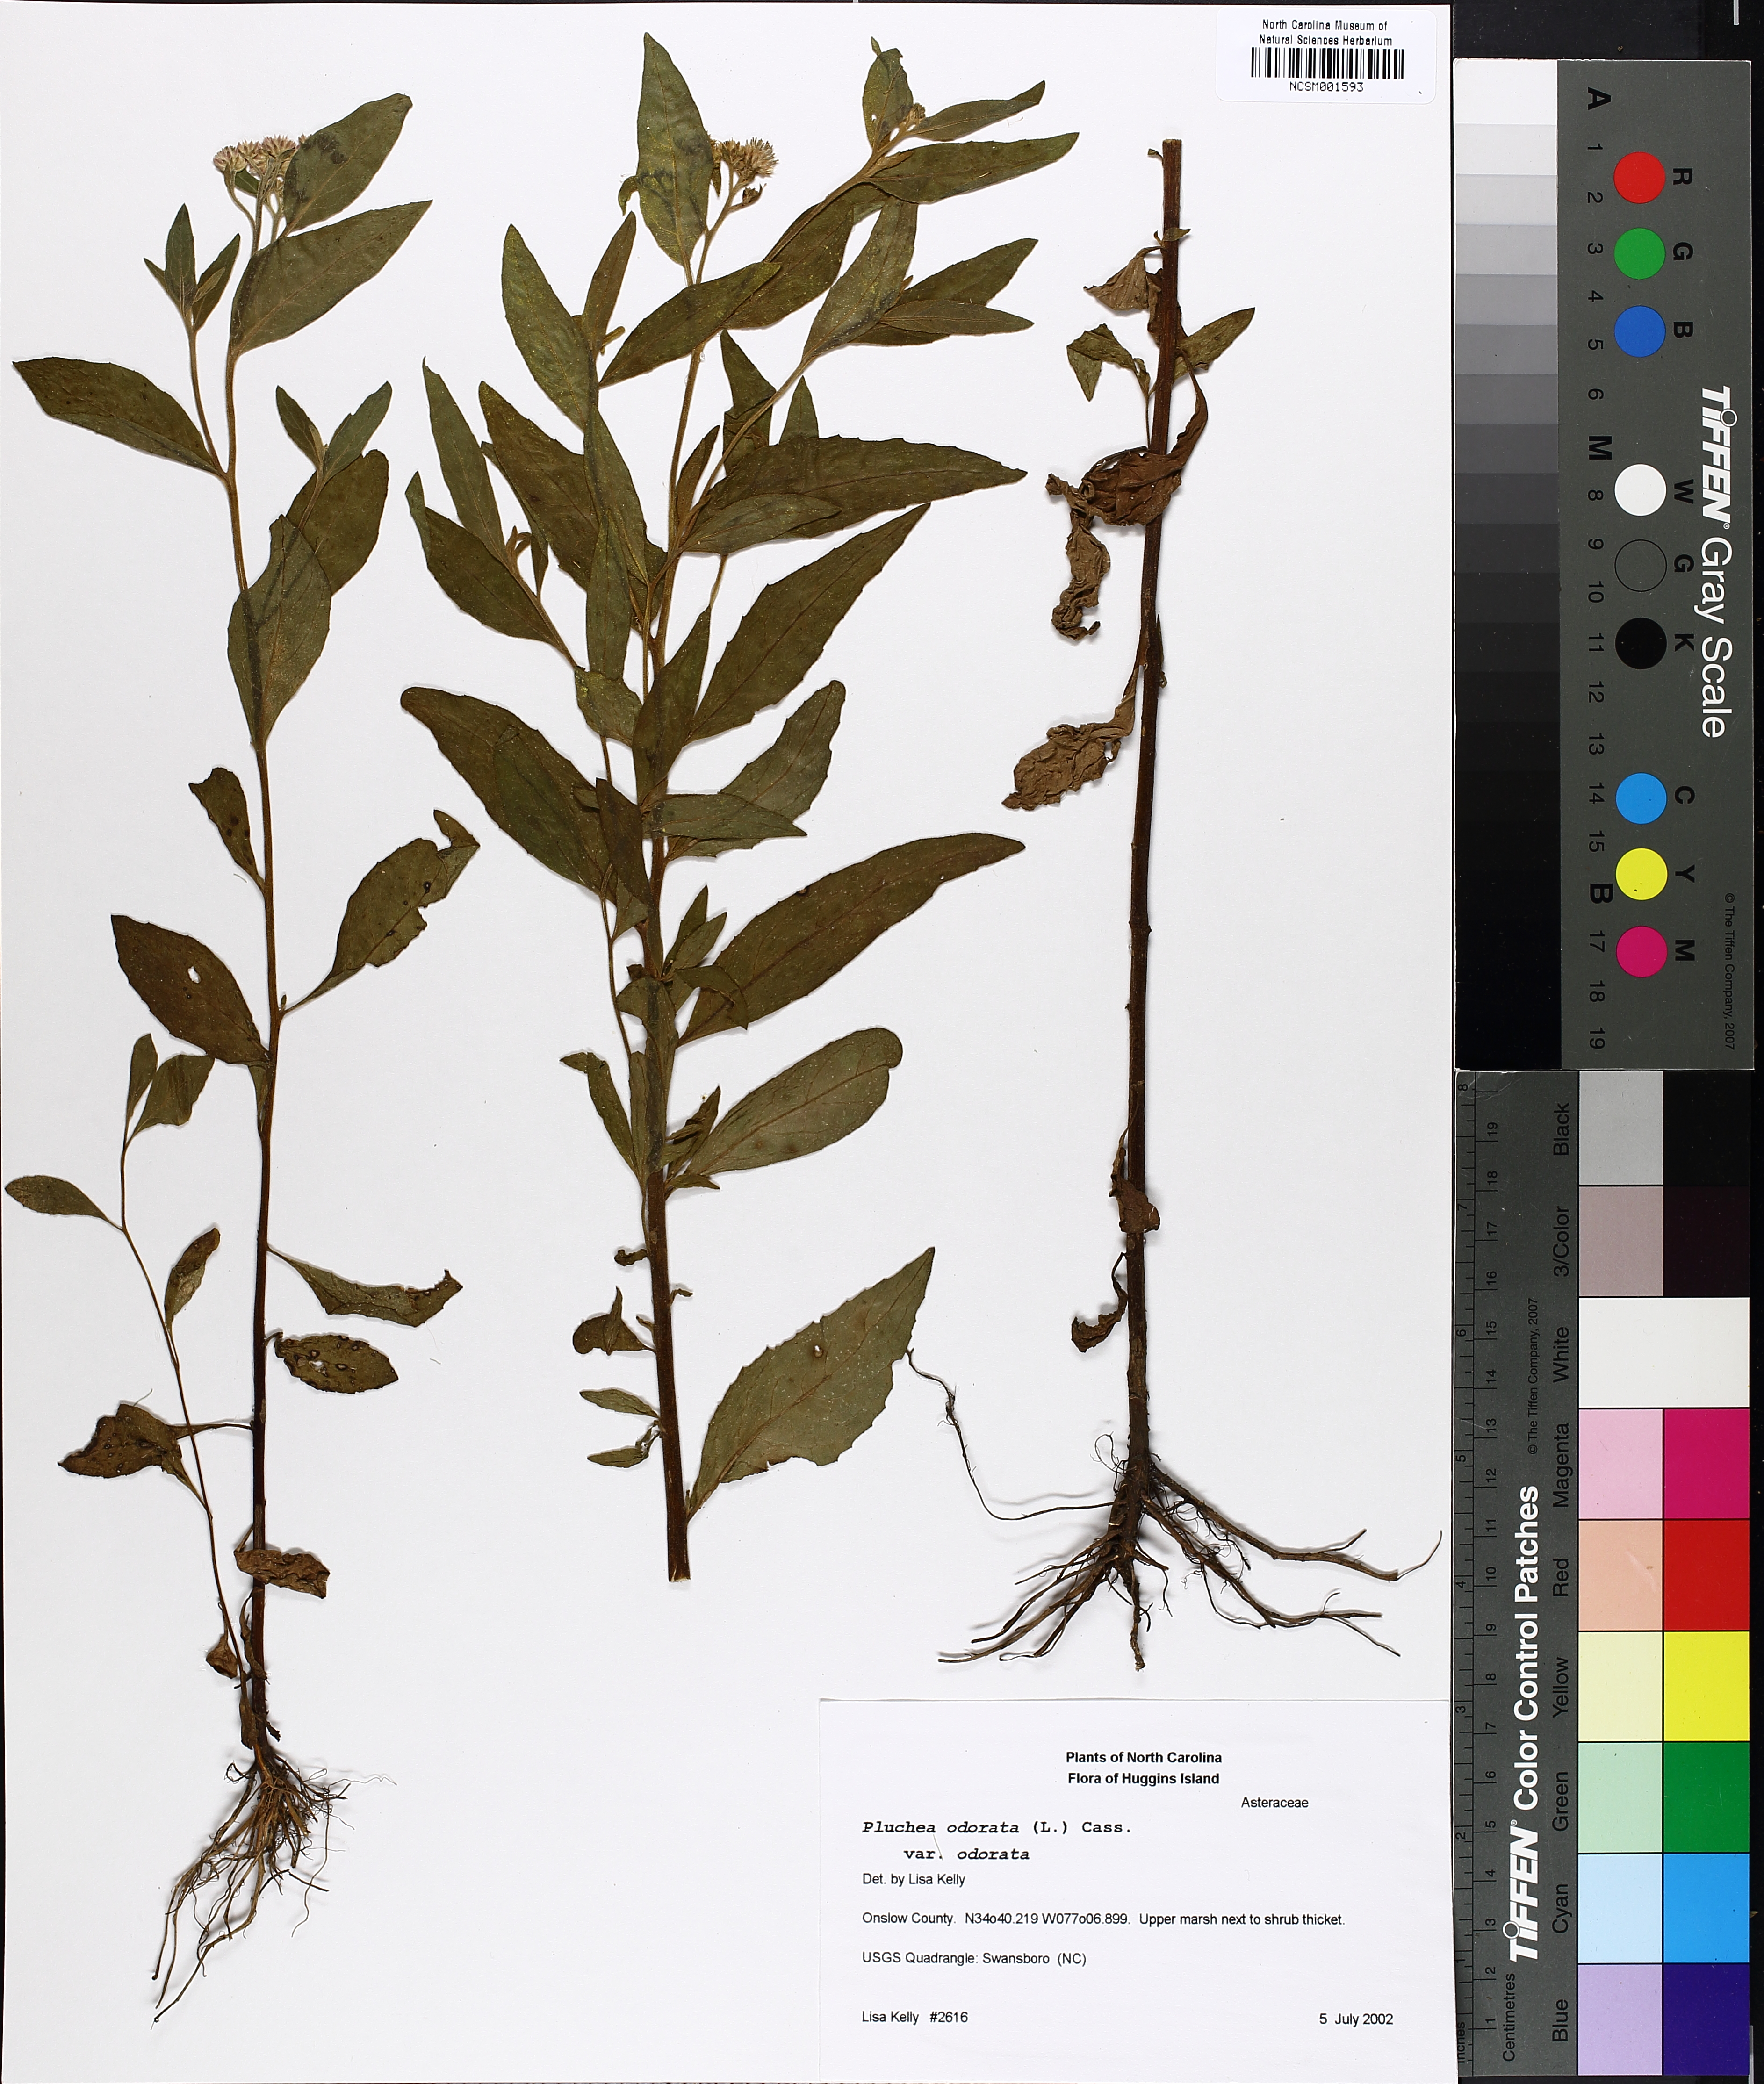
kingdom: Plantae
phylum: Tracheophyta
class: Magnoliopsida
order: Asterales
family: Asteraceae
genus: Pluchea
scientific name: Pluchea odorata
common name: Saltmarsh fleabane
